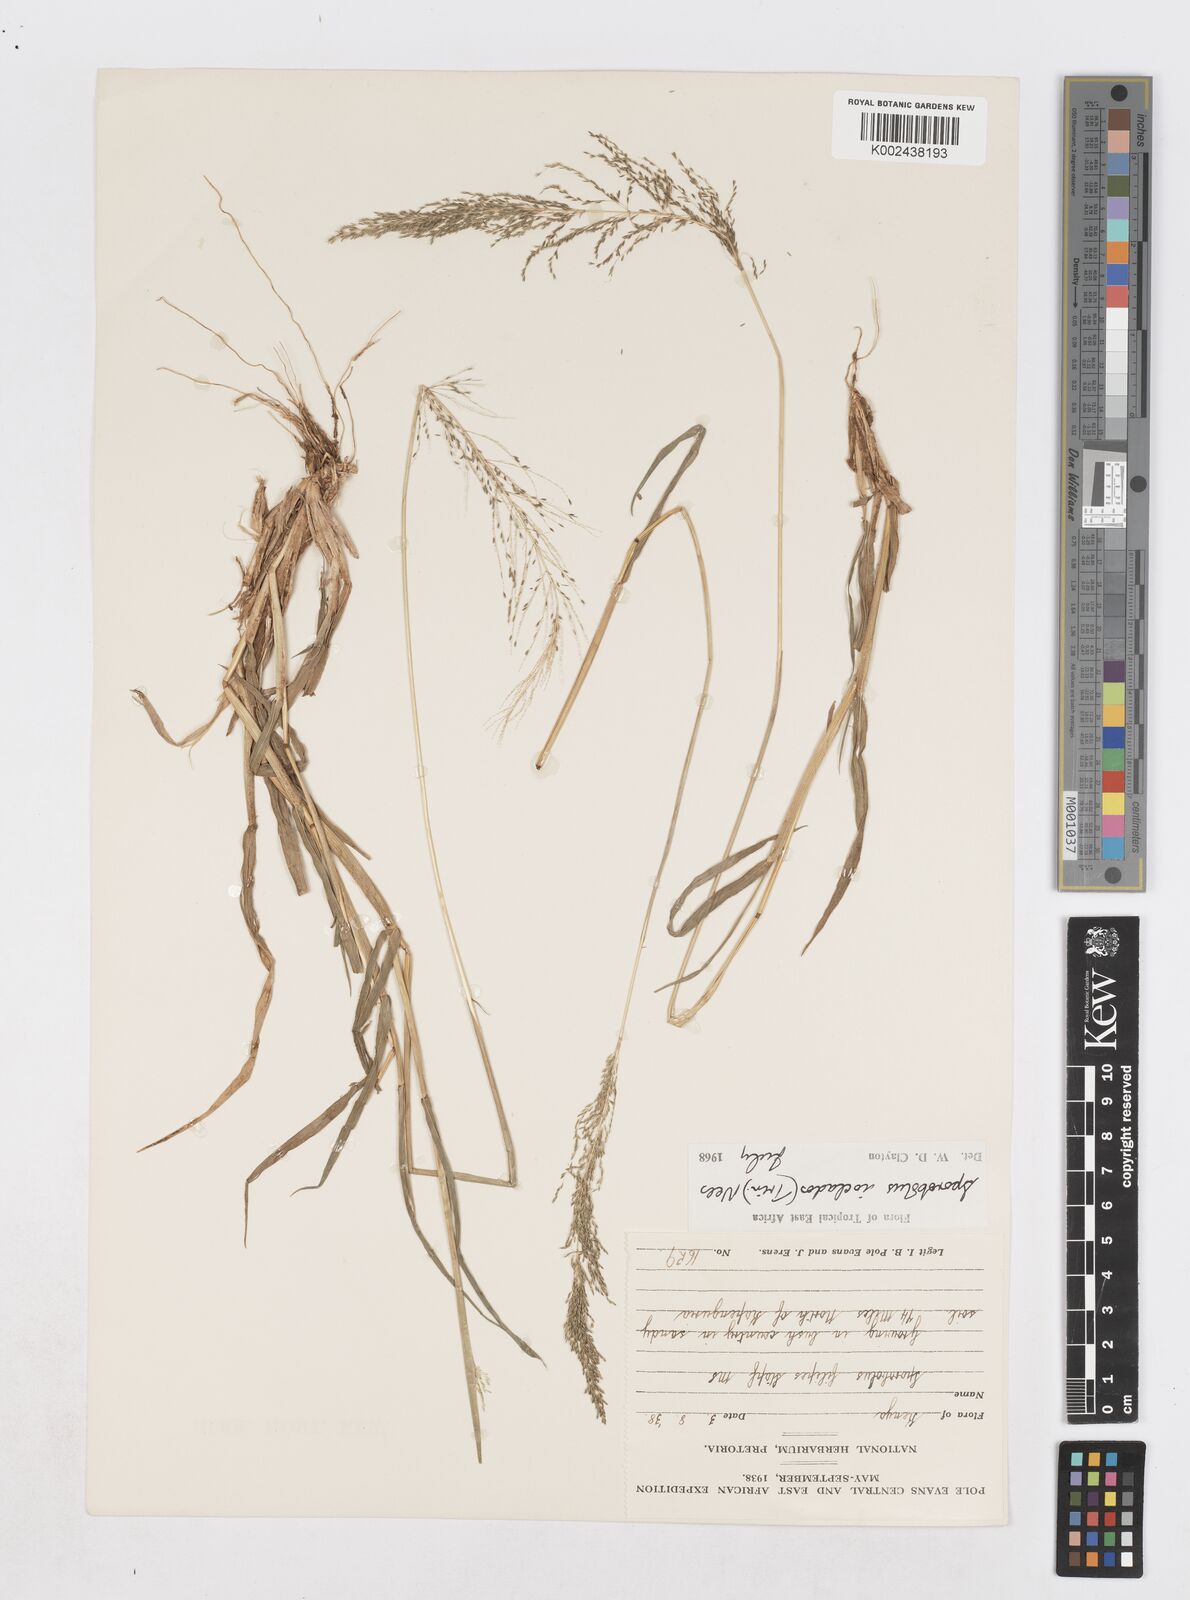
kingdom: Plantae
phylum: Tracheophyta
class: Liliopsida
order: Poales
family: Poaceae
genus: Sporobolus
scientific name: Sporobolus ioclados
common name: Pan dropseed
